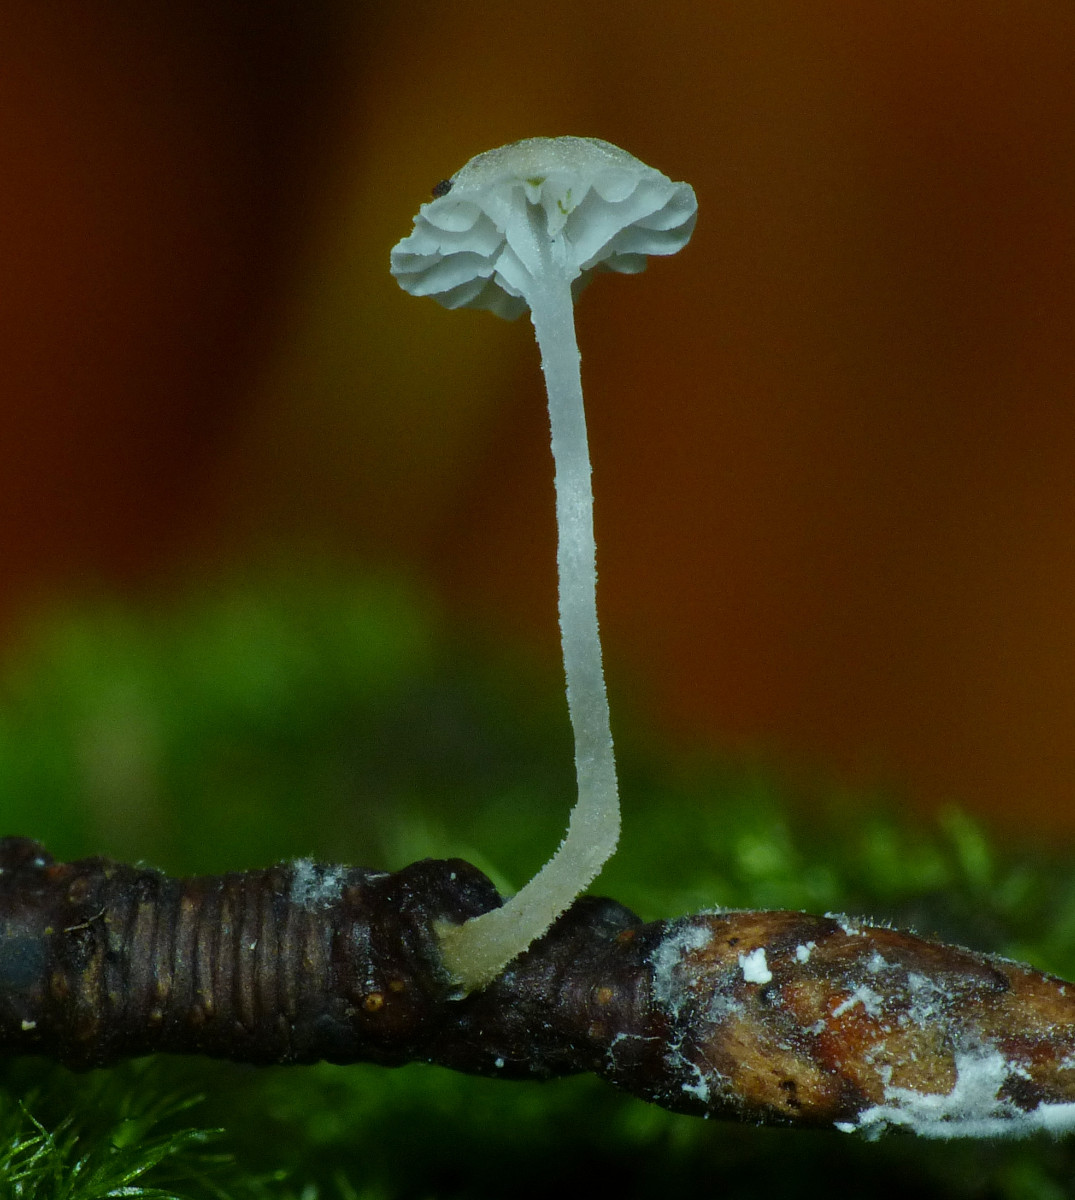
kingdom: Fungi
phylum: Basidiomycota
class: Agaricomycetes
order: Agaricales
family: Porotheleaceae
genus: Phloeomana
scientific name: Phloeomana speirea
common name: kvist-huesvamp
